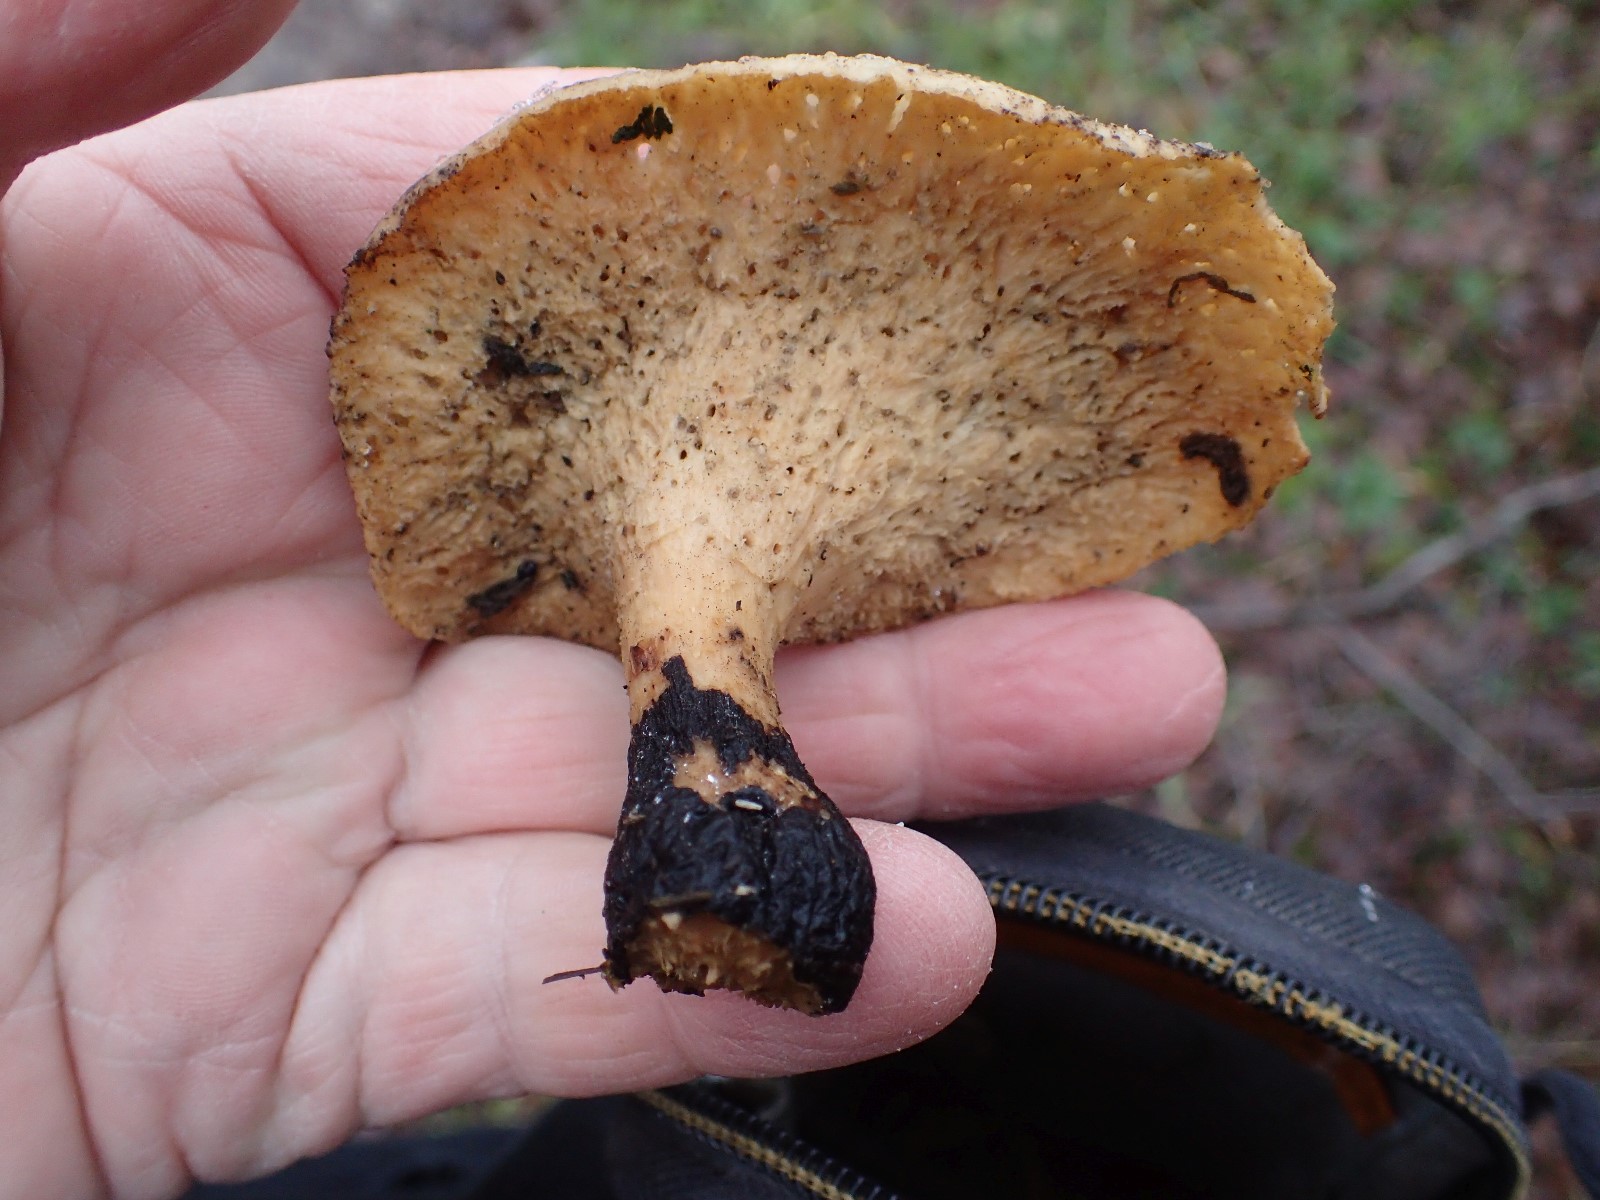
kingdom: Fungi
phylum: Basidiomycota
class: Agaricomycetes
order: Polyporales
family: Polyporaceae
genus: Cerioporus
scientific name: Cerioporus varius
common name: foranderlig stilkporesvamp
